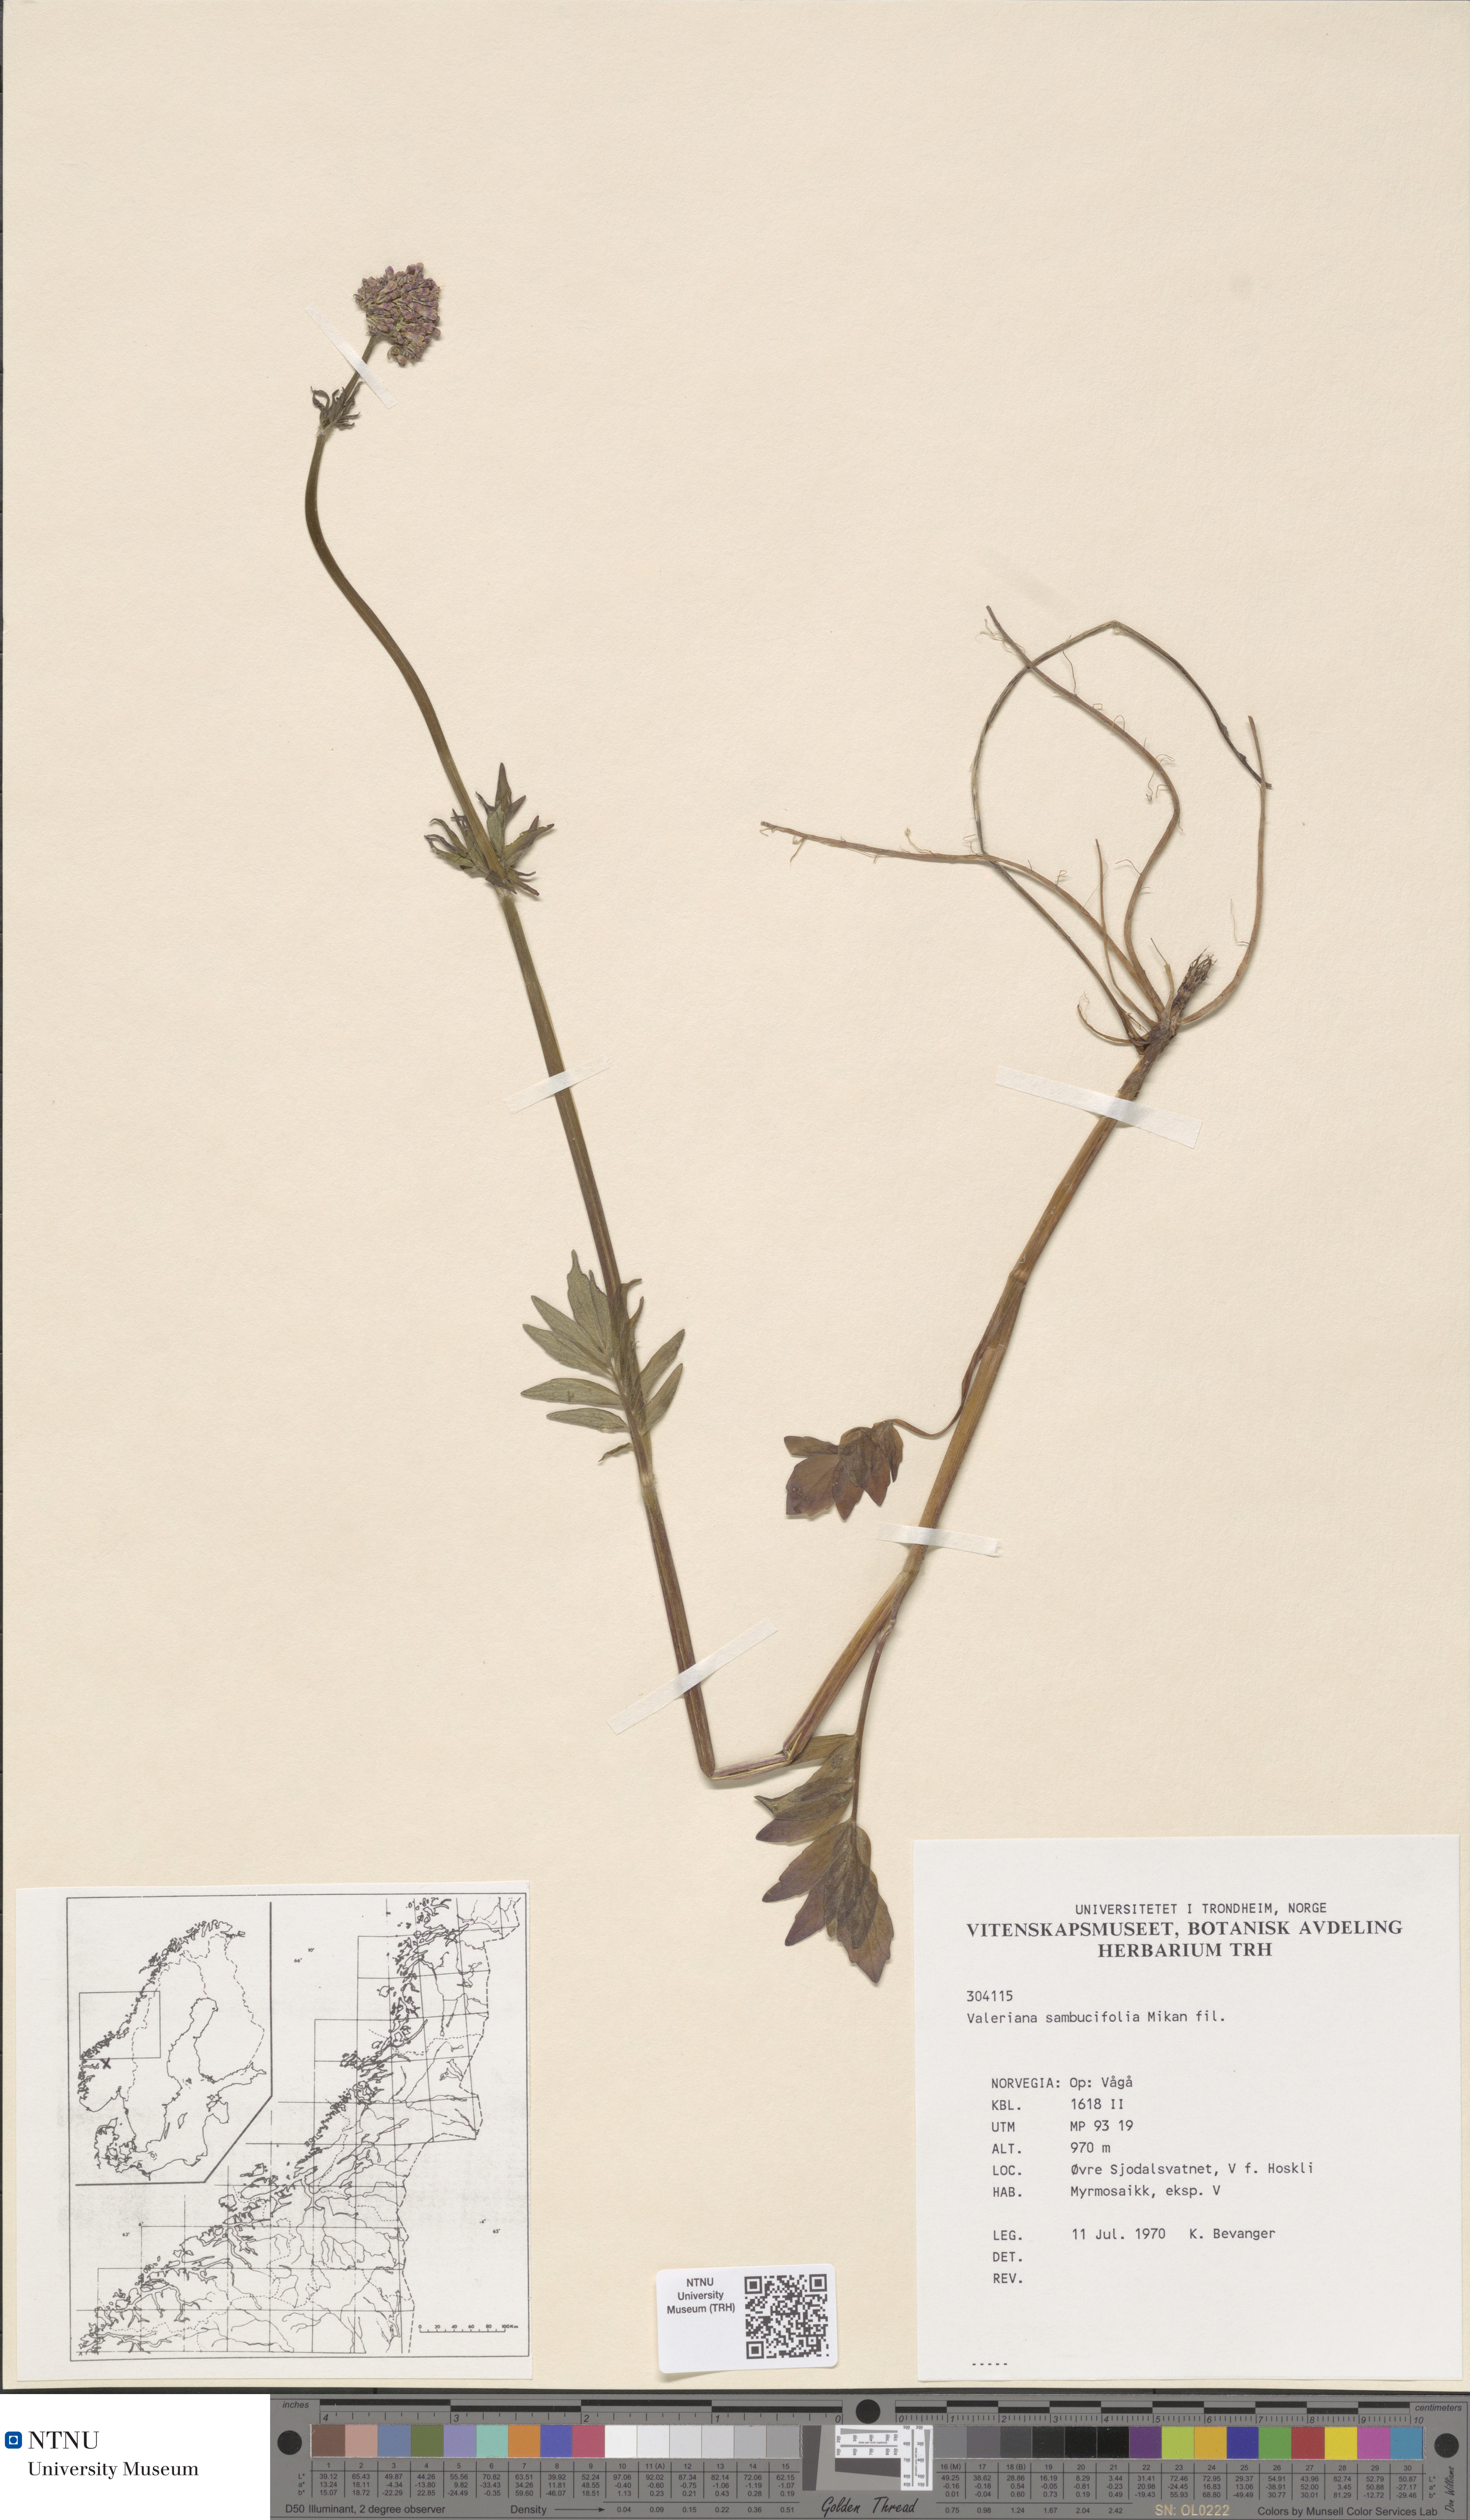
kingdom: Plantae
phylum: Tracheophyta
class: Magnoliopsida
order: Dipsacales
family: Caprifoliaceae
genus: Valeriana
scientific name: Valeriana excelsa
